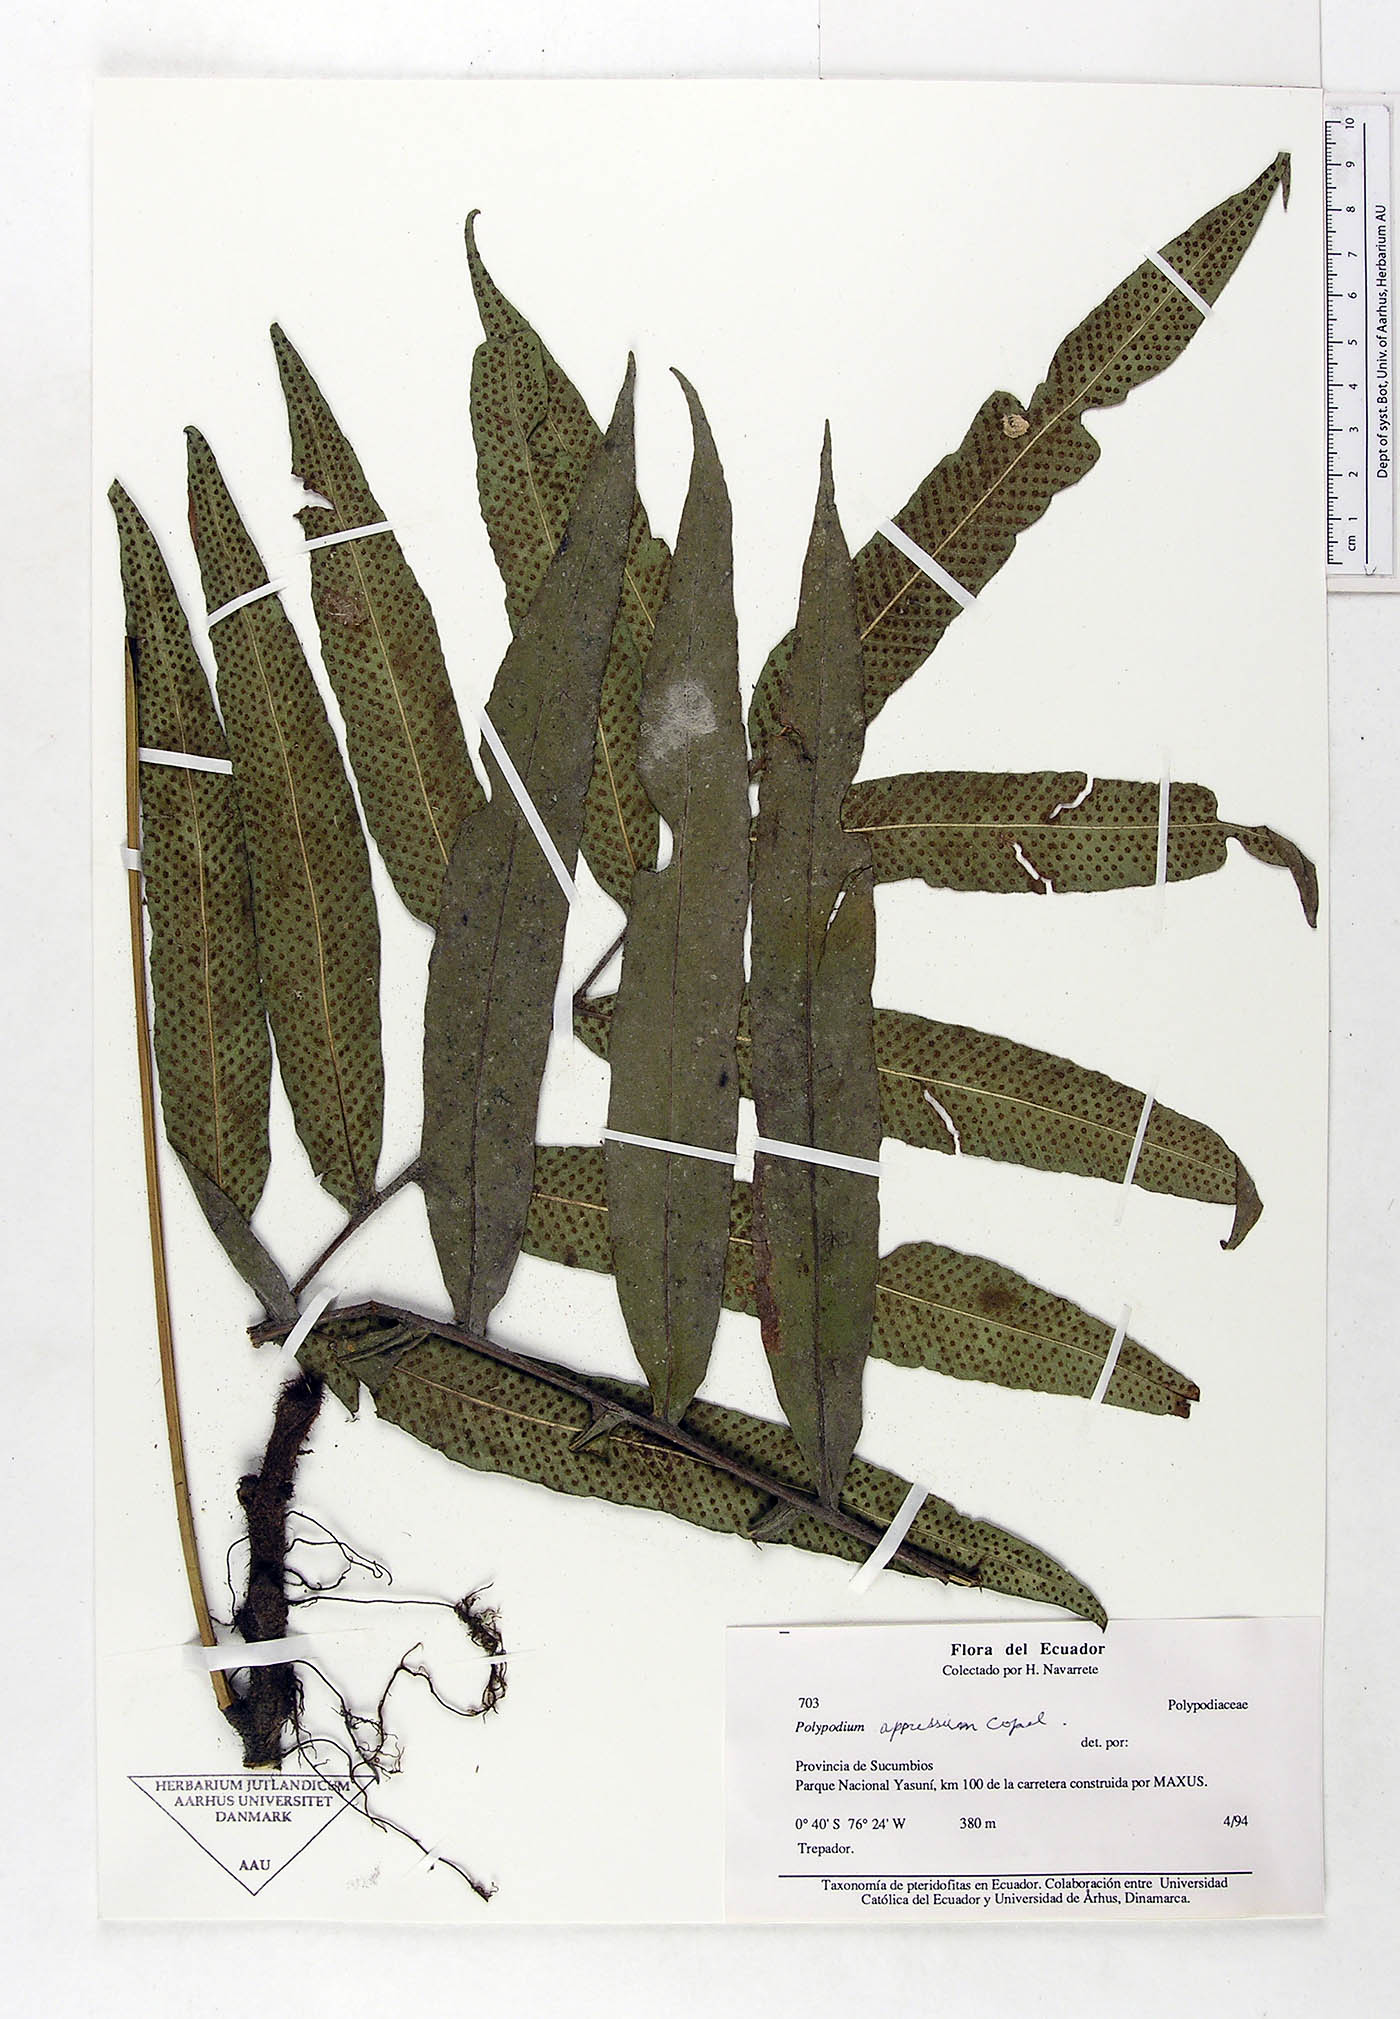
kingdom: Plantae
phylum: Tracheophyta
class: Polypodiopsida
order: Polypodiales
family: Polypodiaceae
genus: Serpocaulon
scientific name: Serpocaulon appressum
